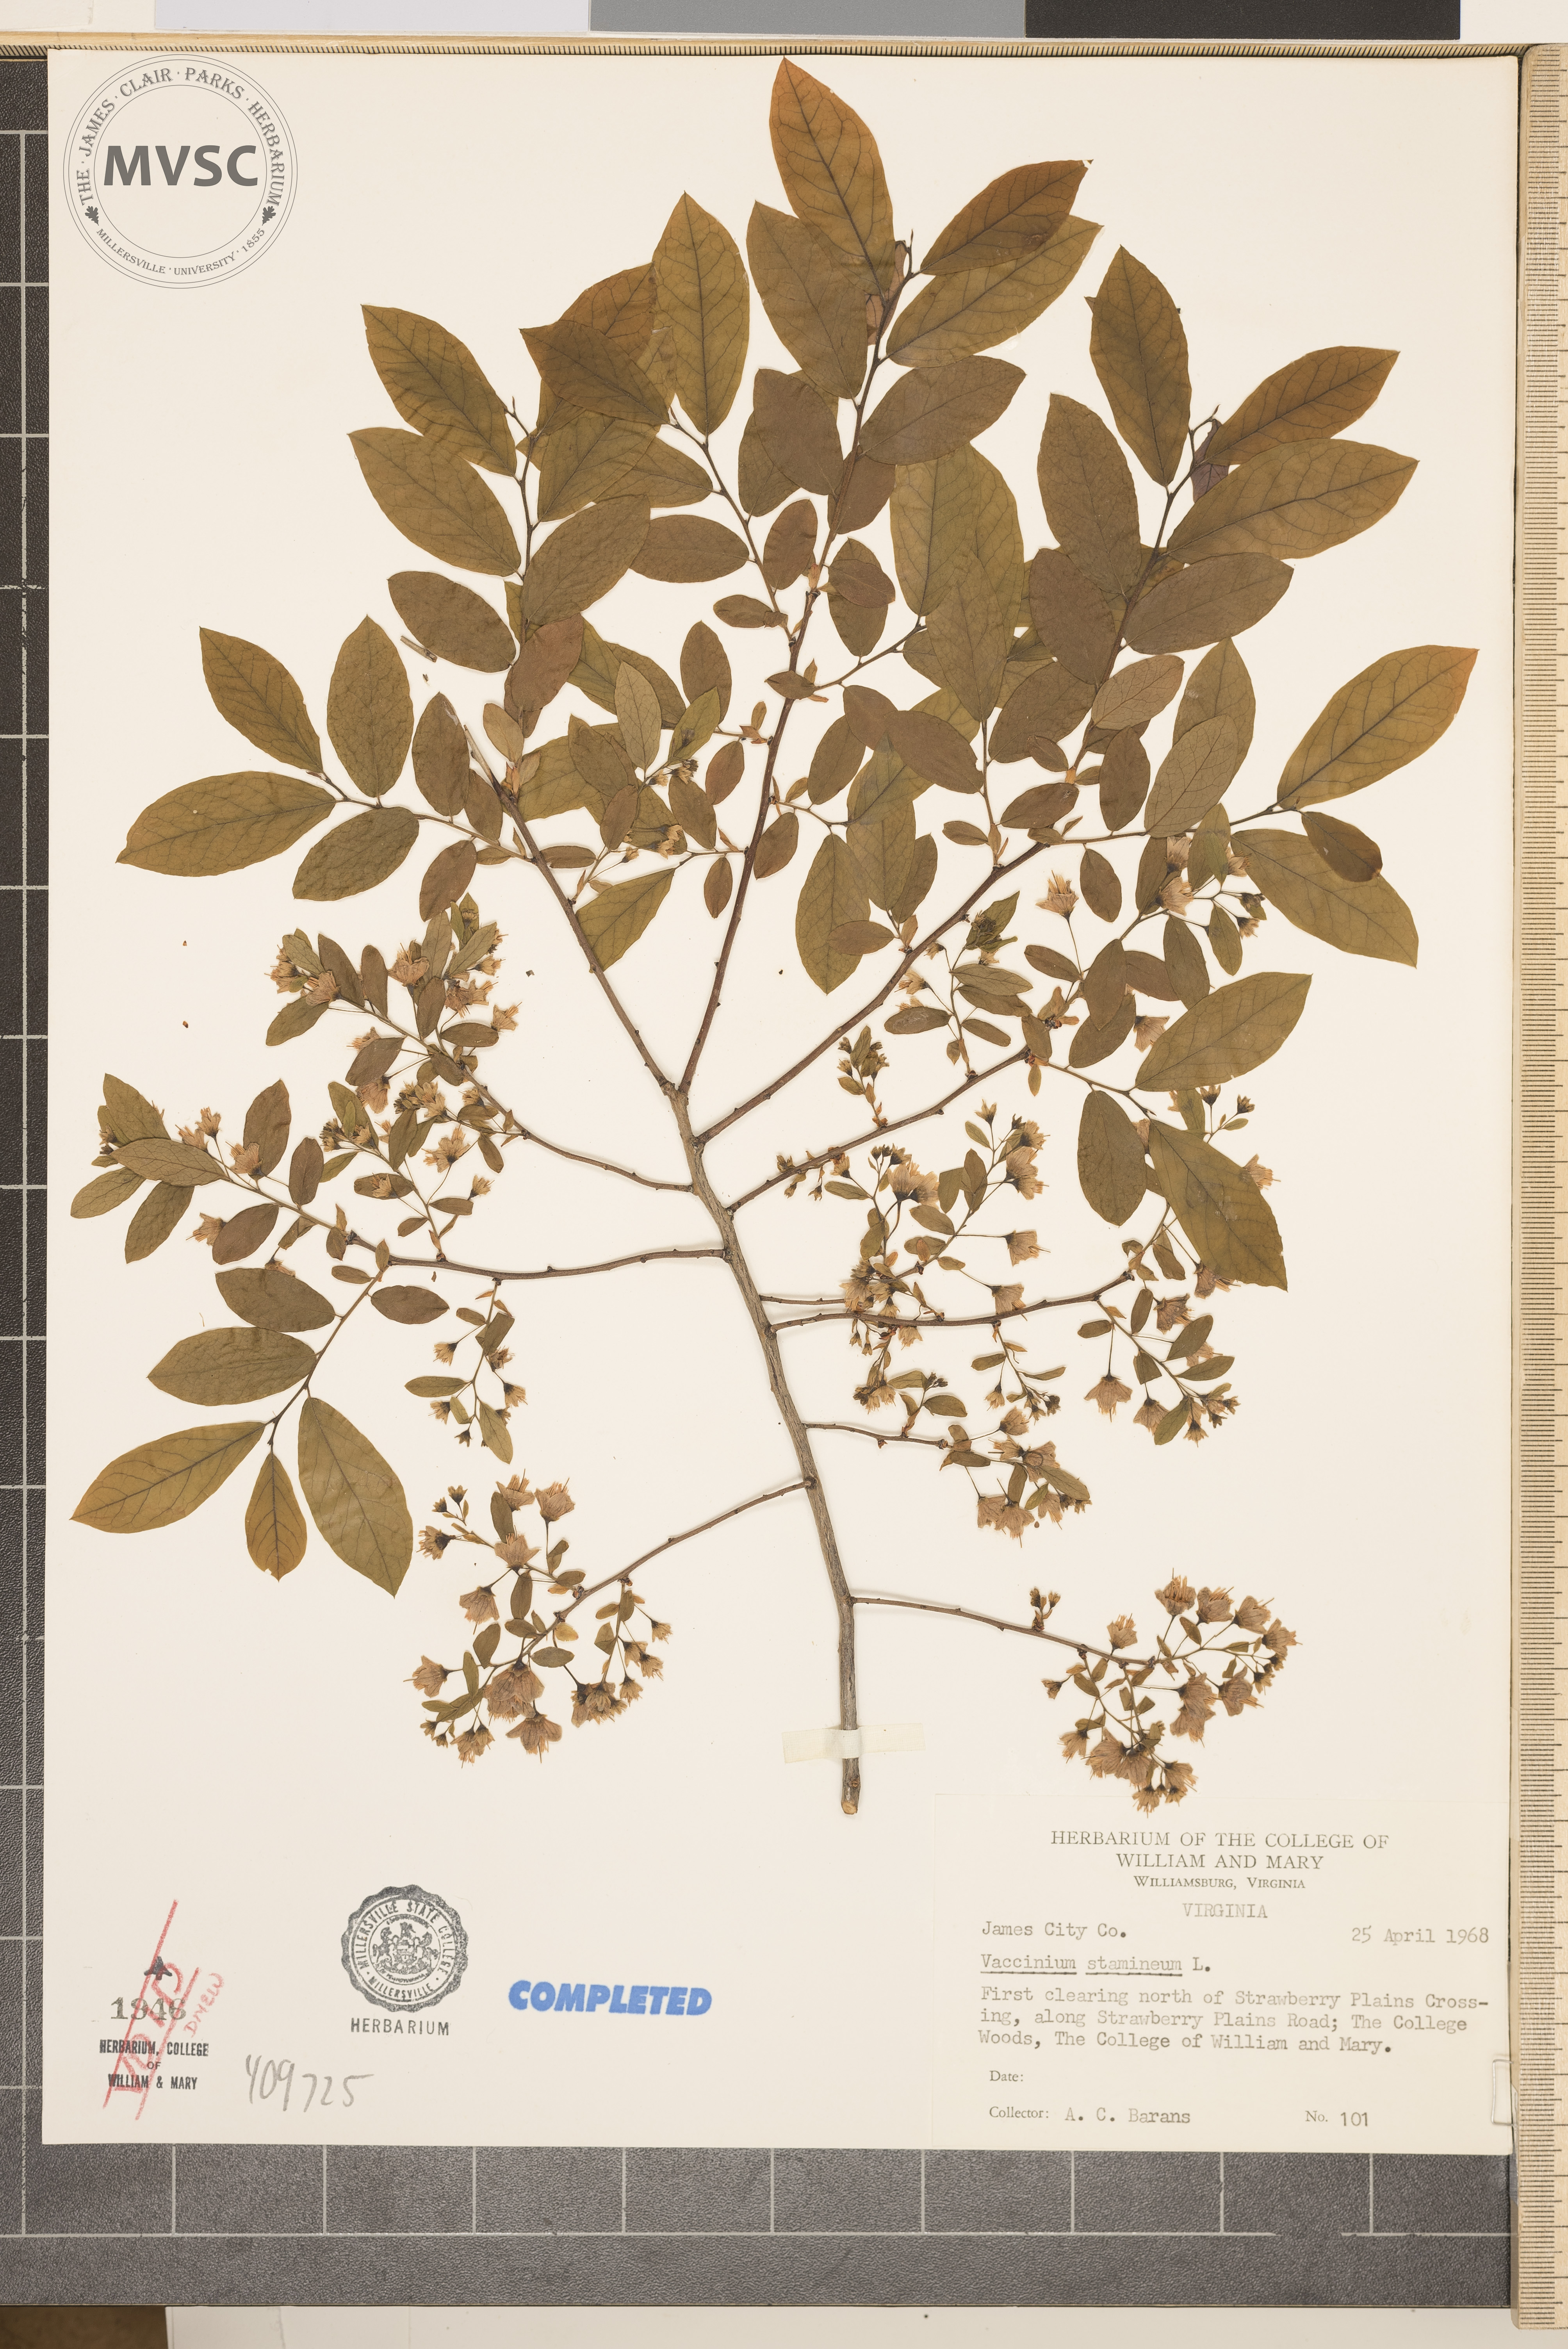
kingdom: Plantae
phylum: Tracheophyta
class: Magnoliopsida
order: Ericales
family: Ericaceae
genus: Vaccinium
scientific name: Vaccinium stamineum
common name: Deerberry
